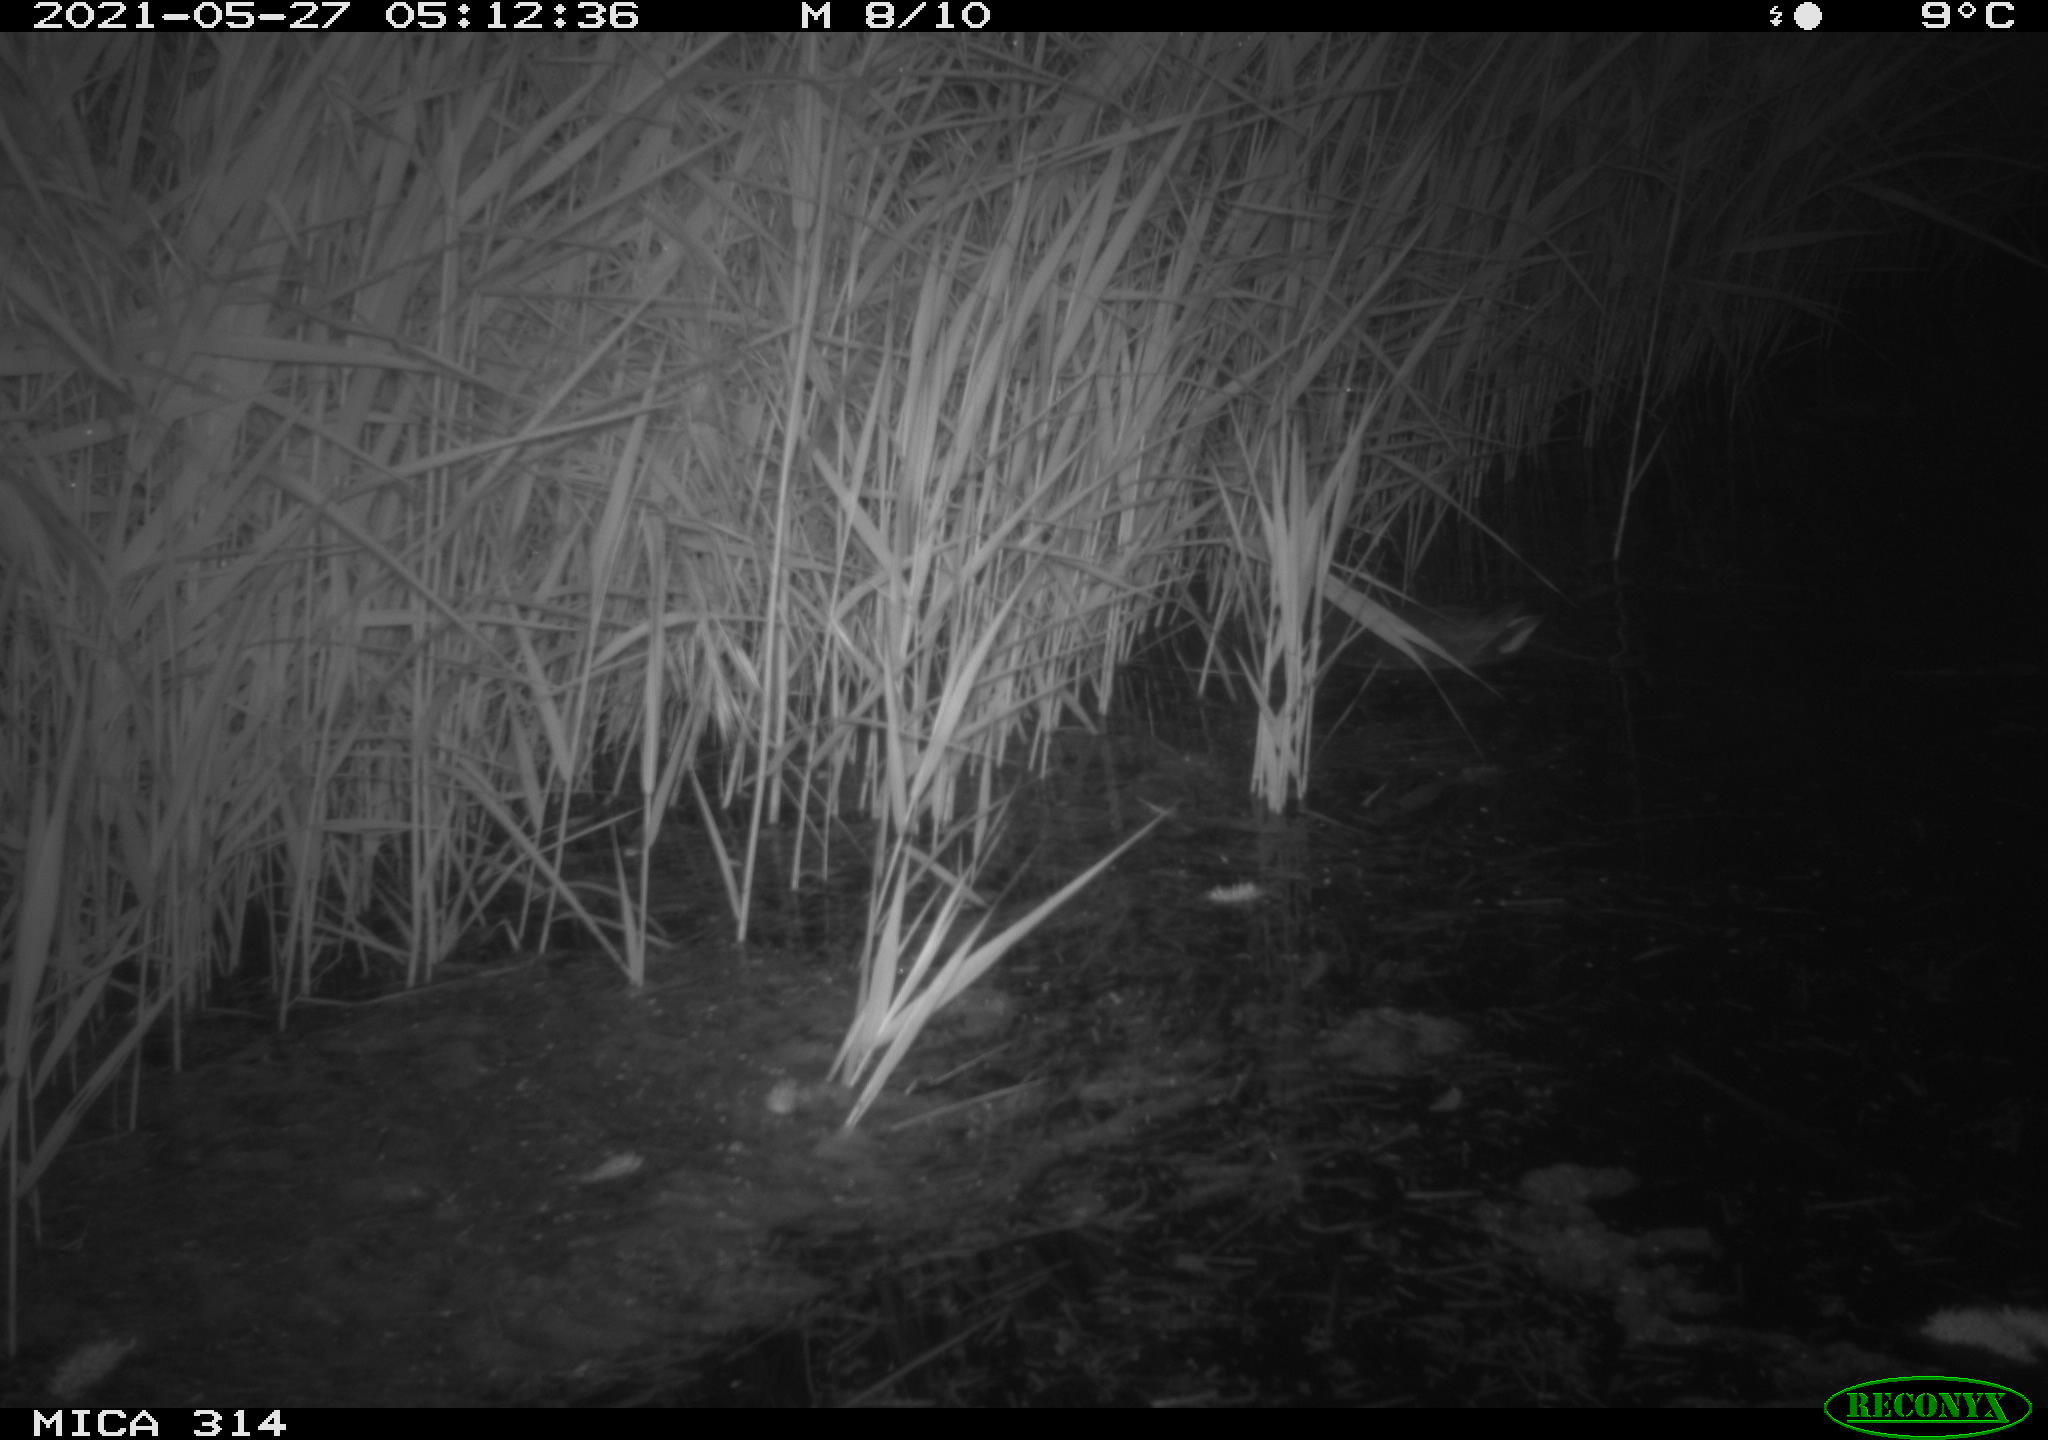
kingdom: Animalia
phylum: Chordata
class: Aves
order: Gruiformes
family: Rallidae
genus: Gallinula
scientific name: Gallinula chloropus
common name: Common moorhen
